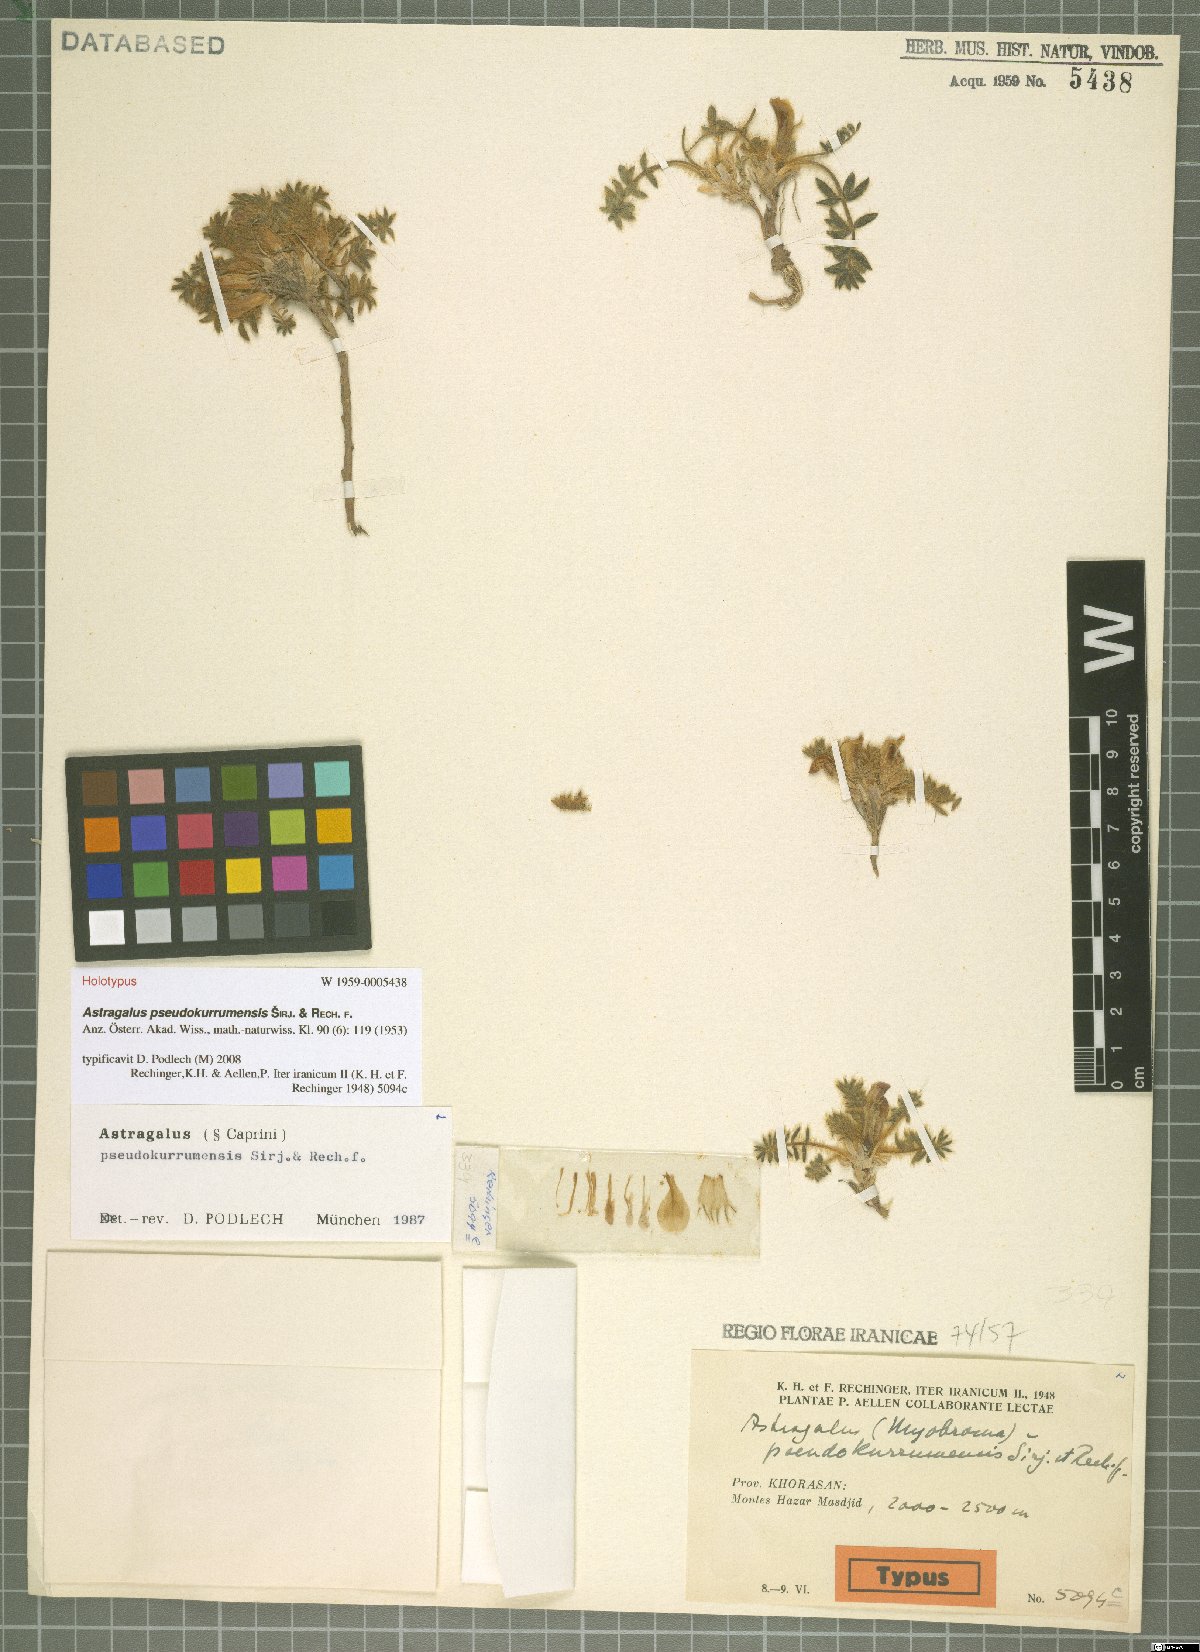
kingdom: Plantae
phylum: Tracheophyta
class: Magnoliopsida
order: Fabales
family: Fabaceae
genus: Astragalus
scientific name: Astragalus pseudokurrumensis
